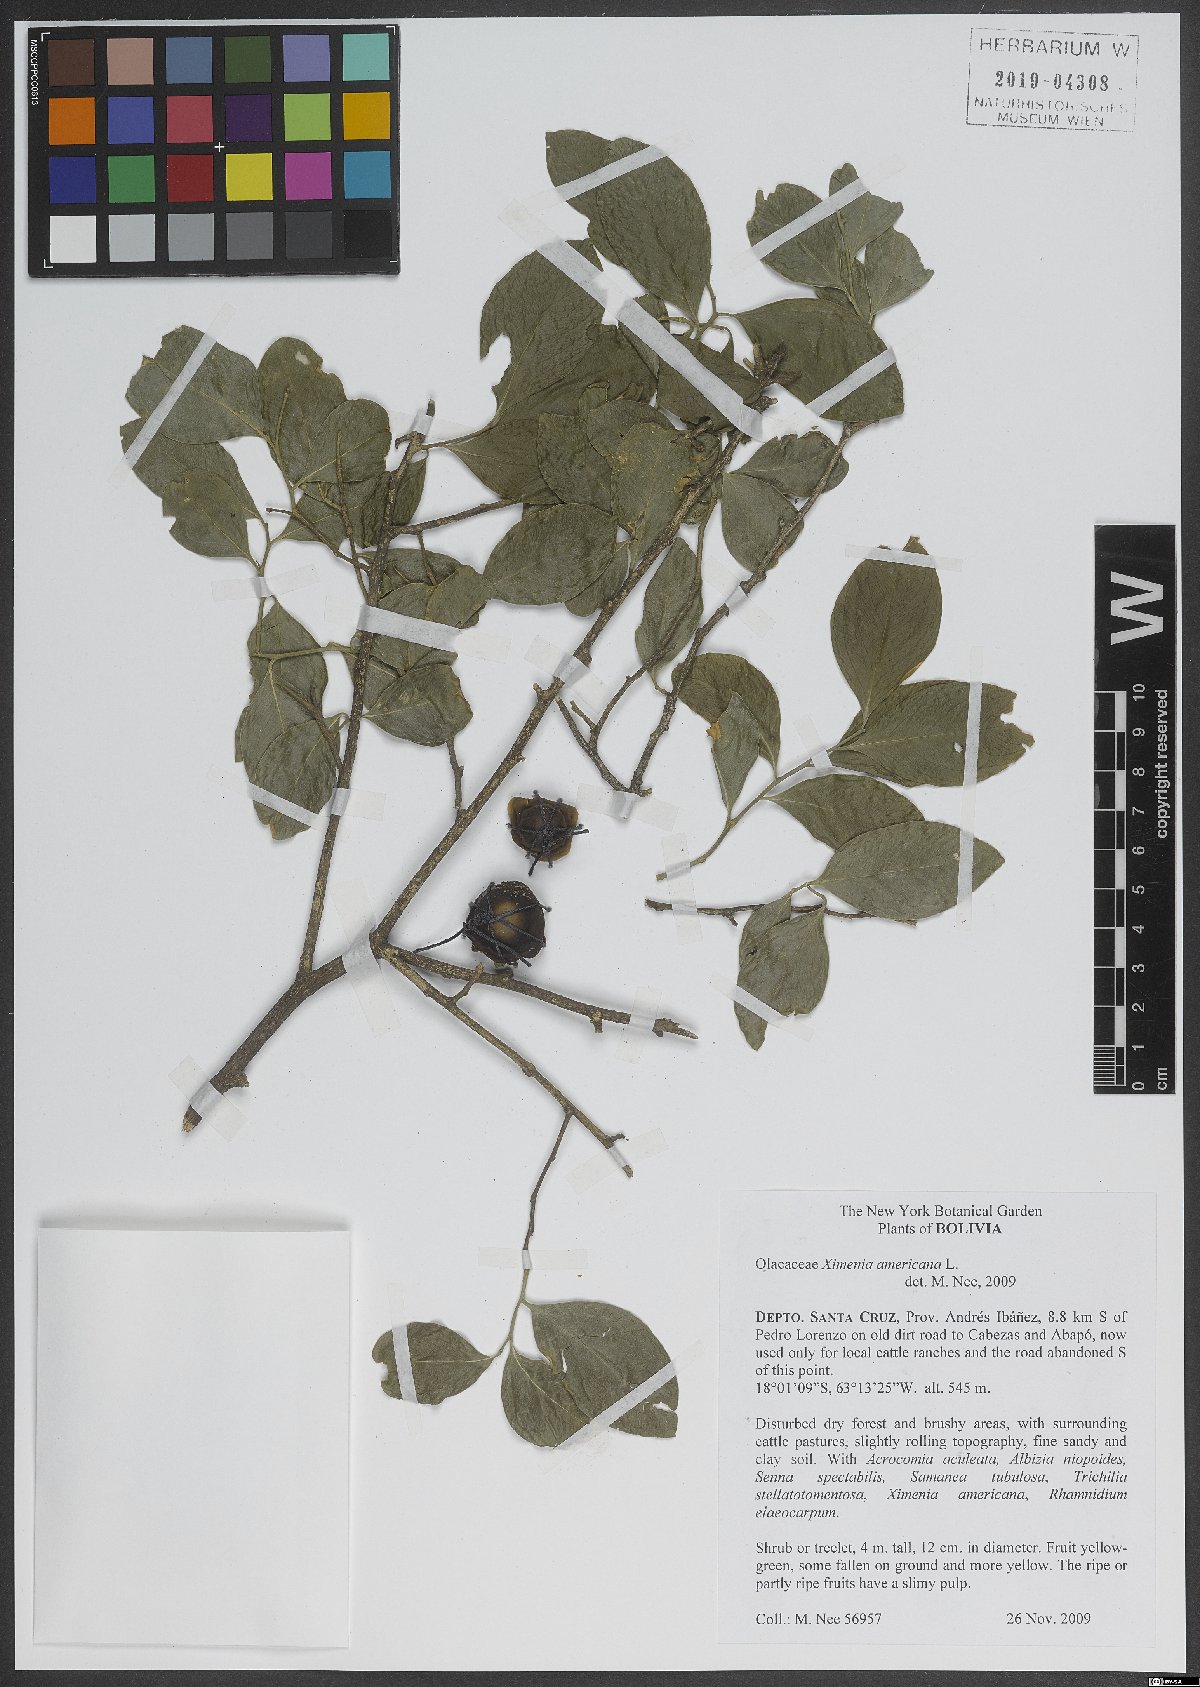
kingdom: Plantae
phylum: Tracheophyta
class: Magnoliopsida
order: Santalales
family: Ximeniaceae
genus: Ximenia
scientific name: Ximenia americana
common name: Tallowwood
